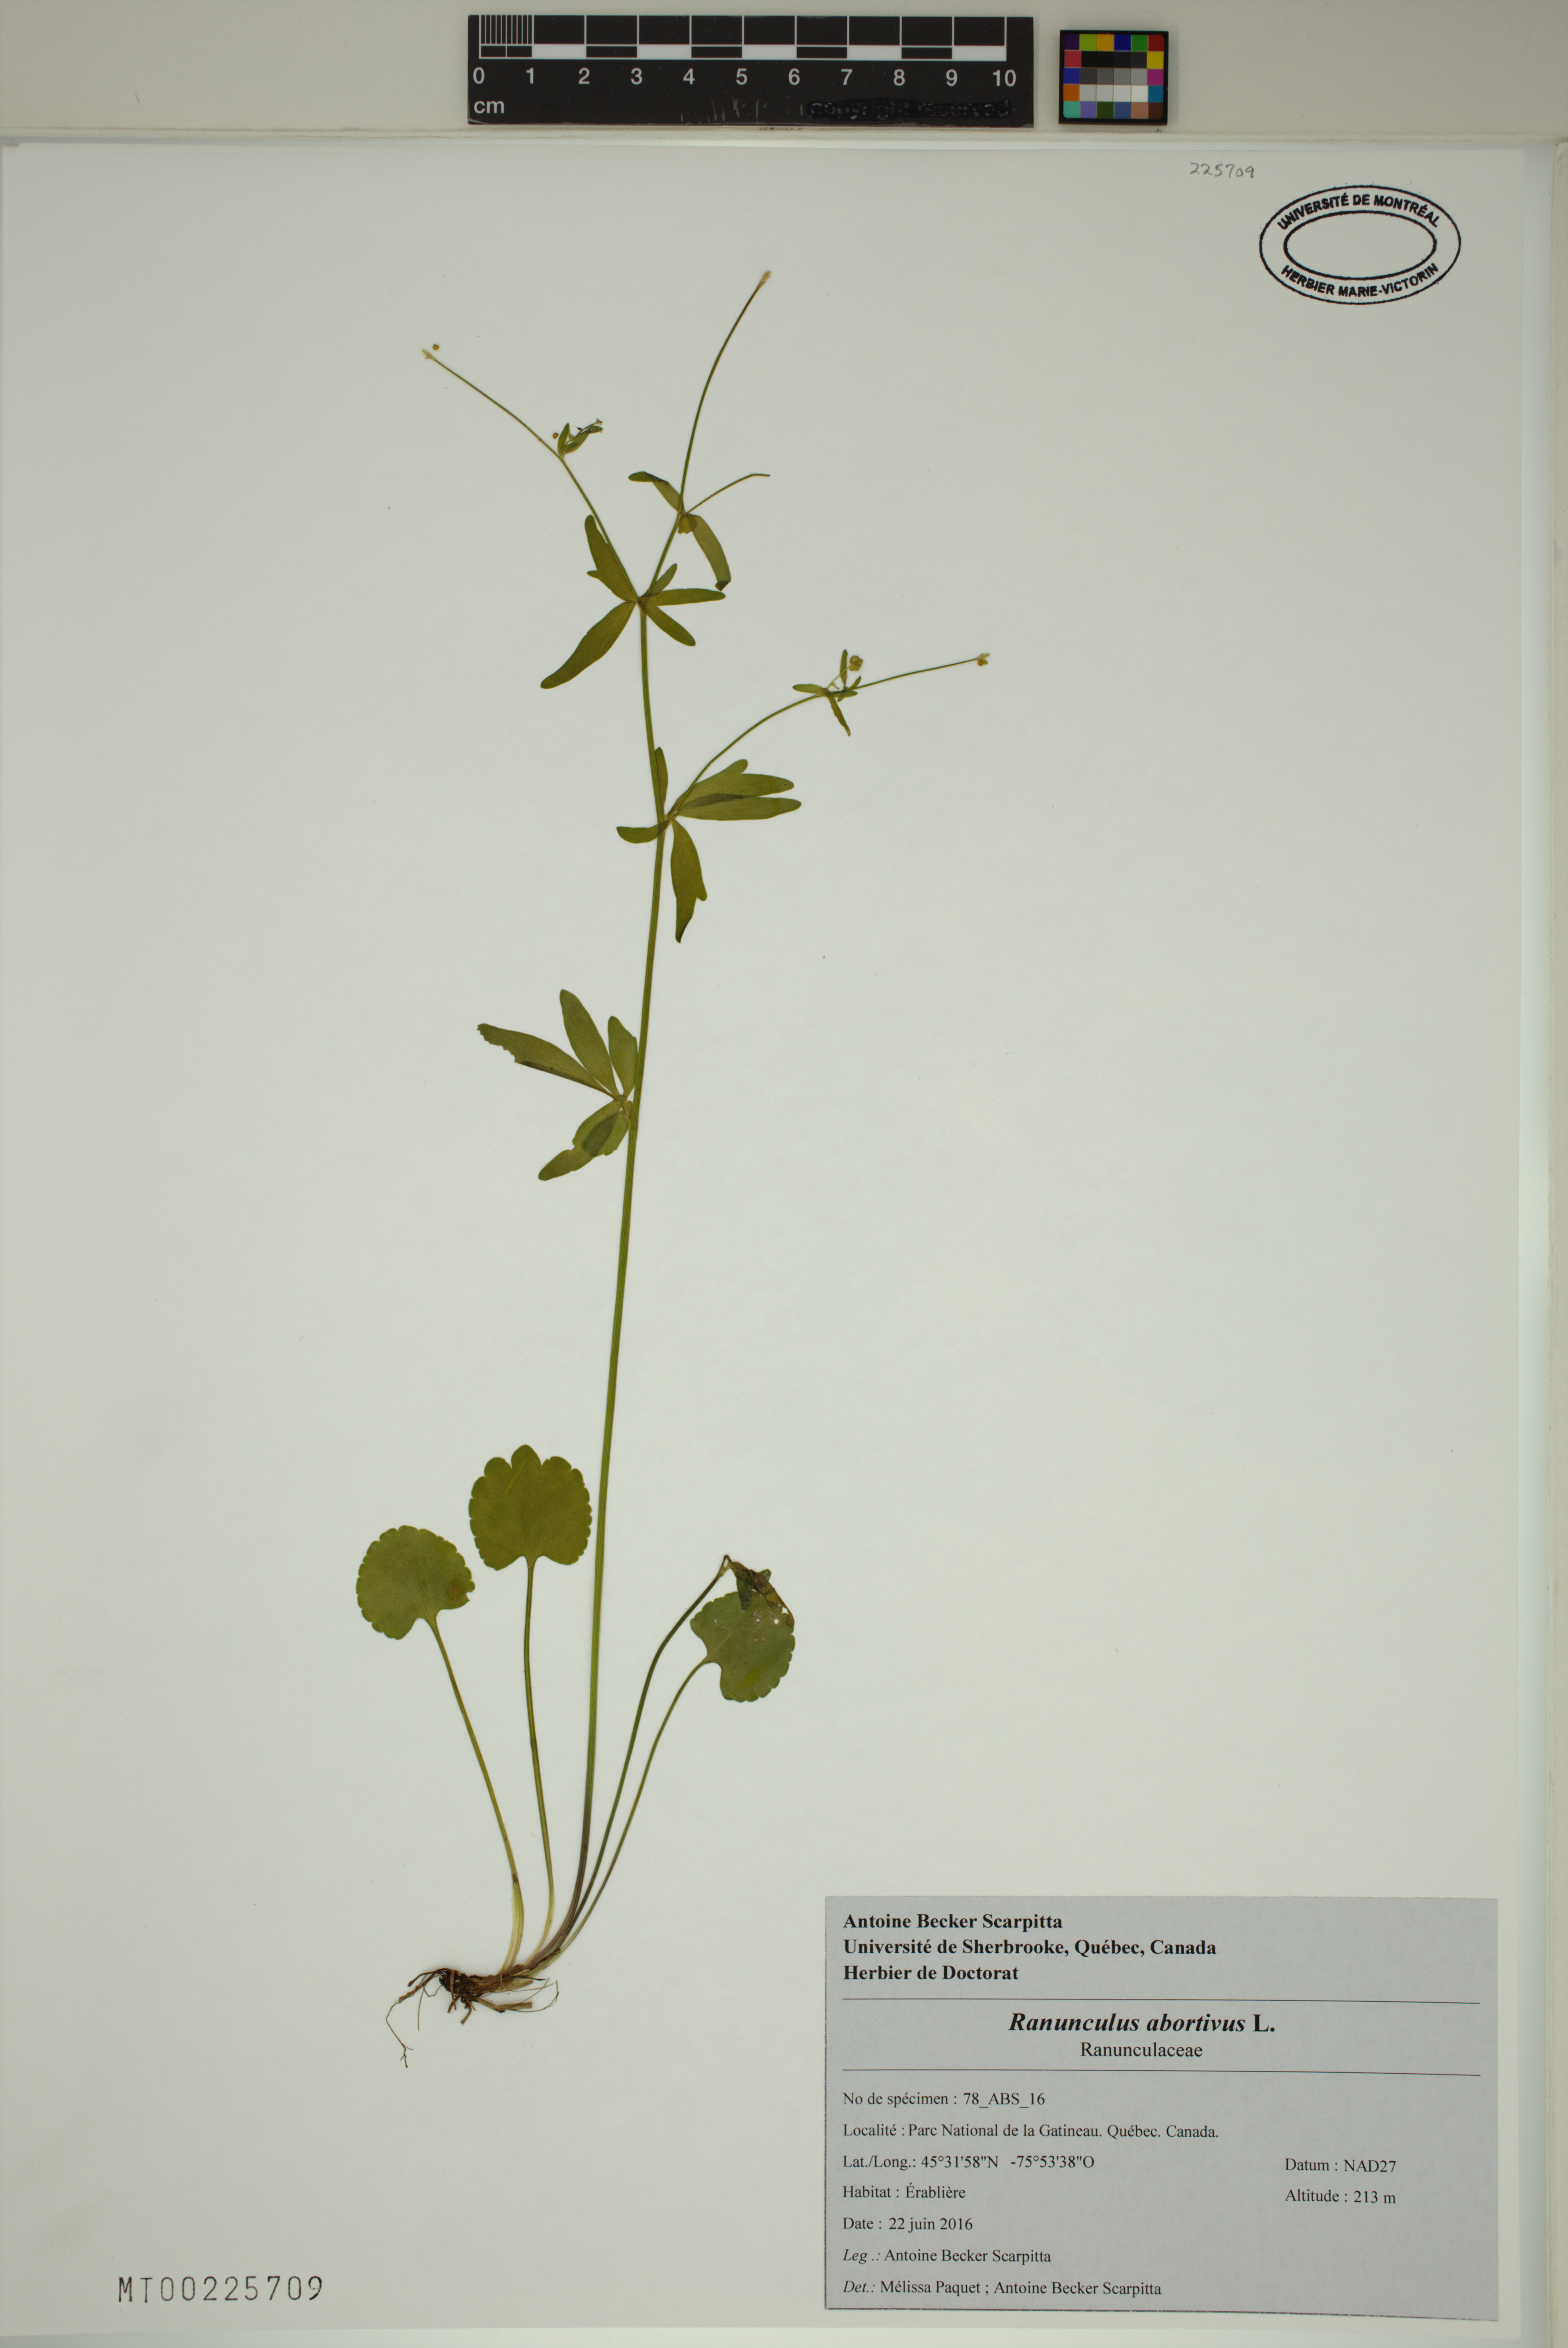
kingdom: Plantae
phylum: Tracheophyta
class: Magnoliopsida
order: Ranunculales
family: Ranunculaceae
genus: Ranunculus
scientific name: Ranunculus abortivus
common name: Early wood buttercup
